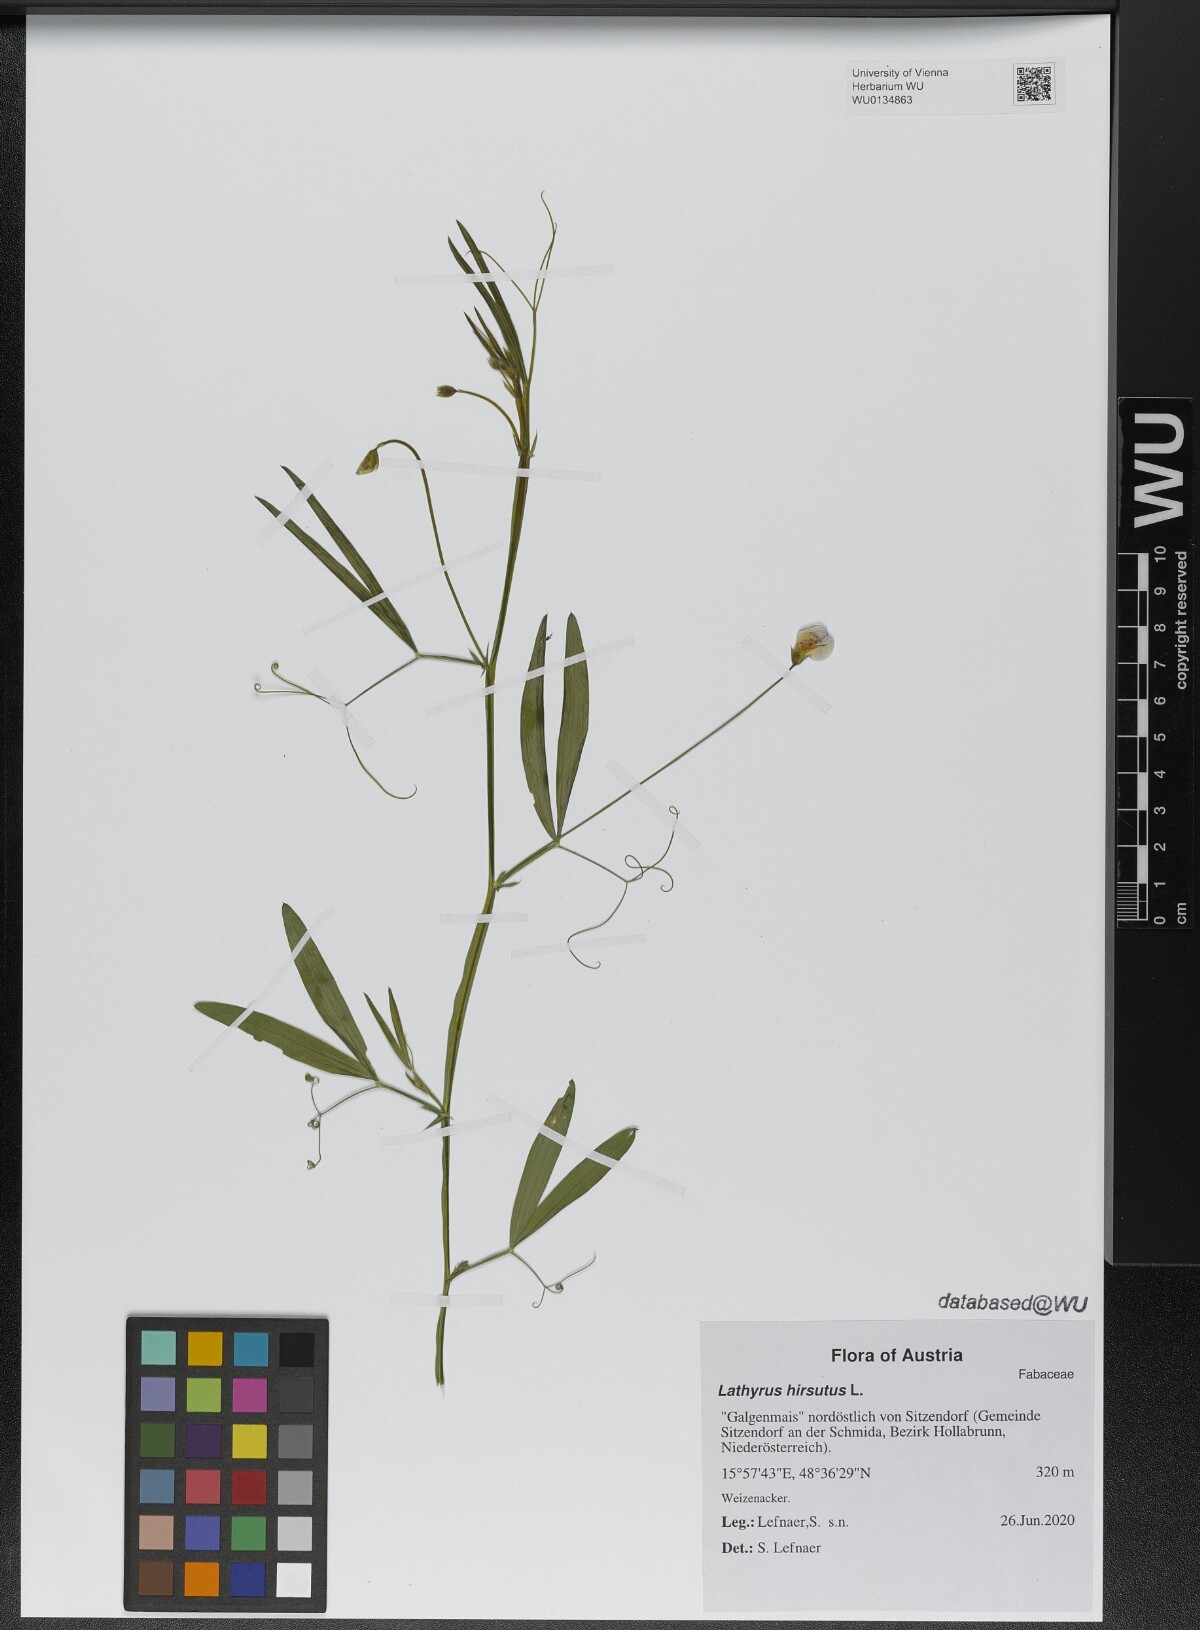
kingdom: Plantae
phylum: Tracheophyta
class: Magnoliopsida
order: Fabales
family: Fabaceae
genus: Lathyrus
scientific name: Lathyrus hirsutus
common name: Hairy vetchling
